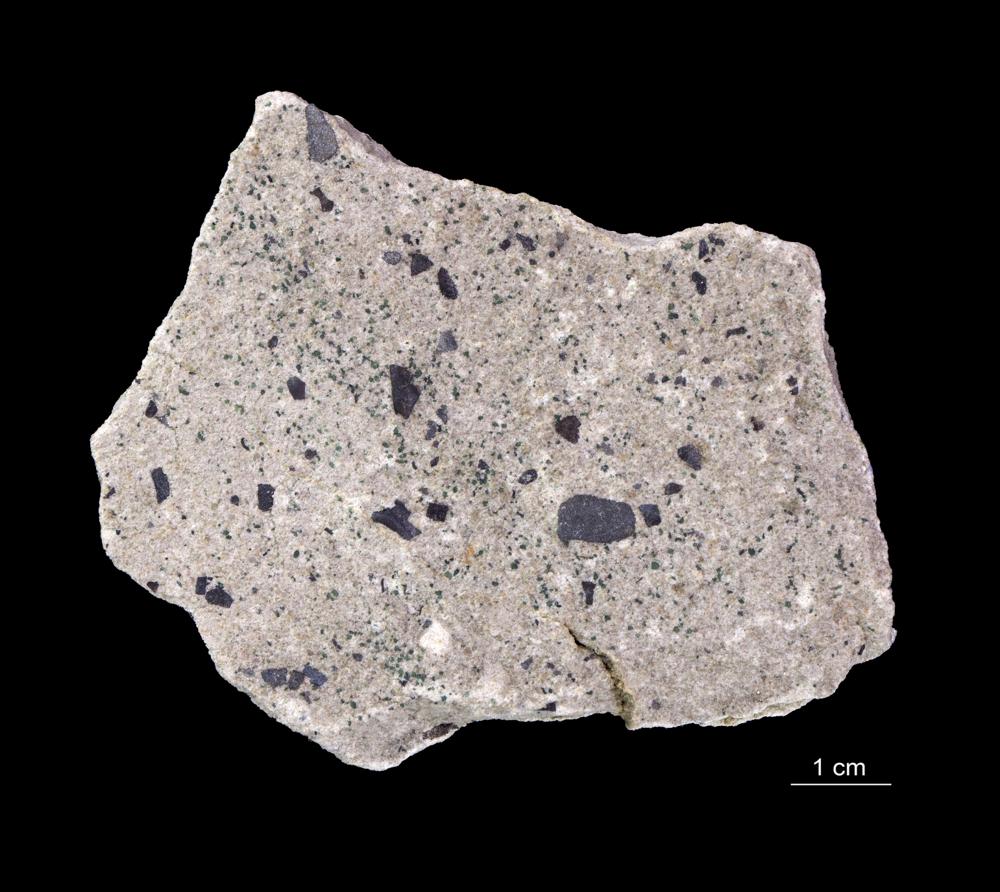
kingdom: Animalia
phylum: Arthropoda
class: Trilobita
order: Redlichiida
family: Holmiidae
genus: Schmidtiellus
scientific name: Schmidtiellus Olenellus mickwitzi
